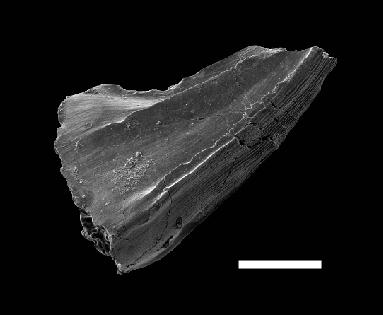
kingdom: Animalia
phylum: Chordata
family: Belodellidae
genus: Walliserodus
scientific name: Walliserodus
